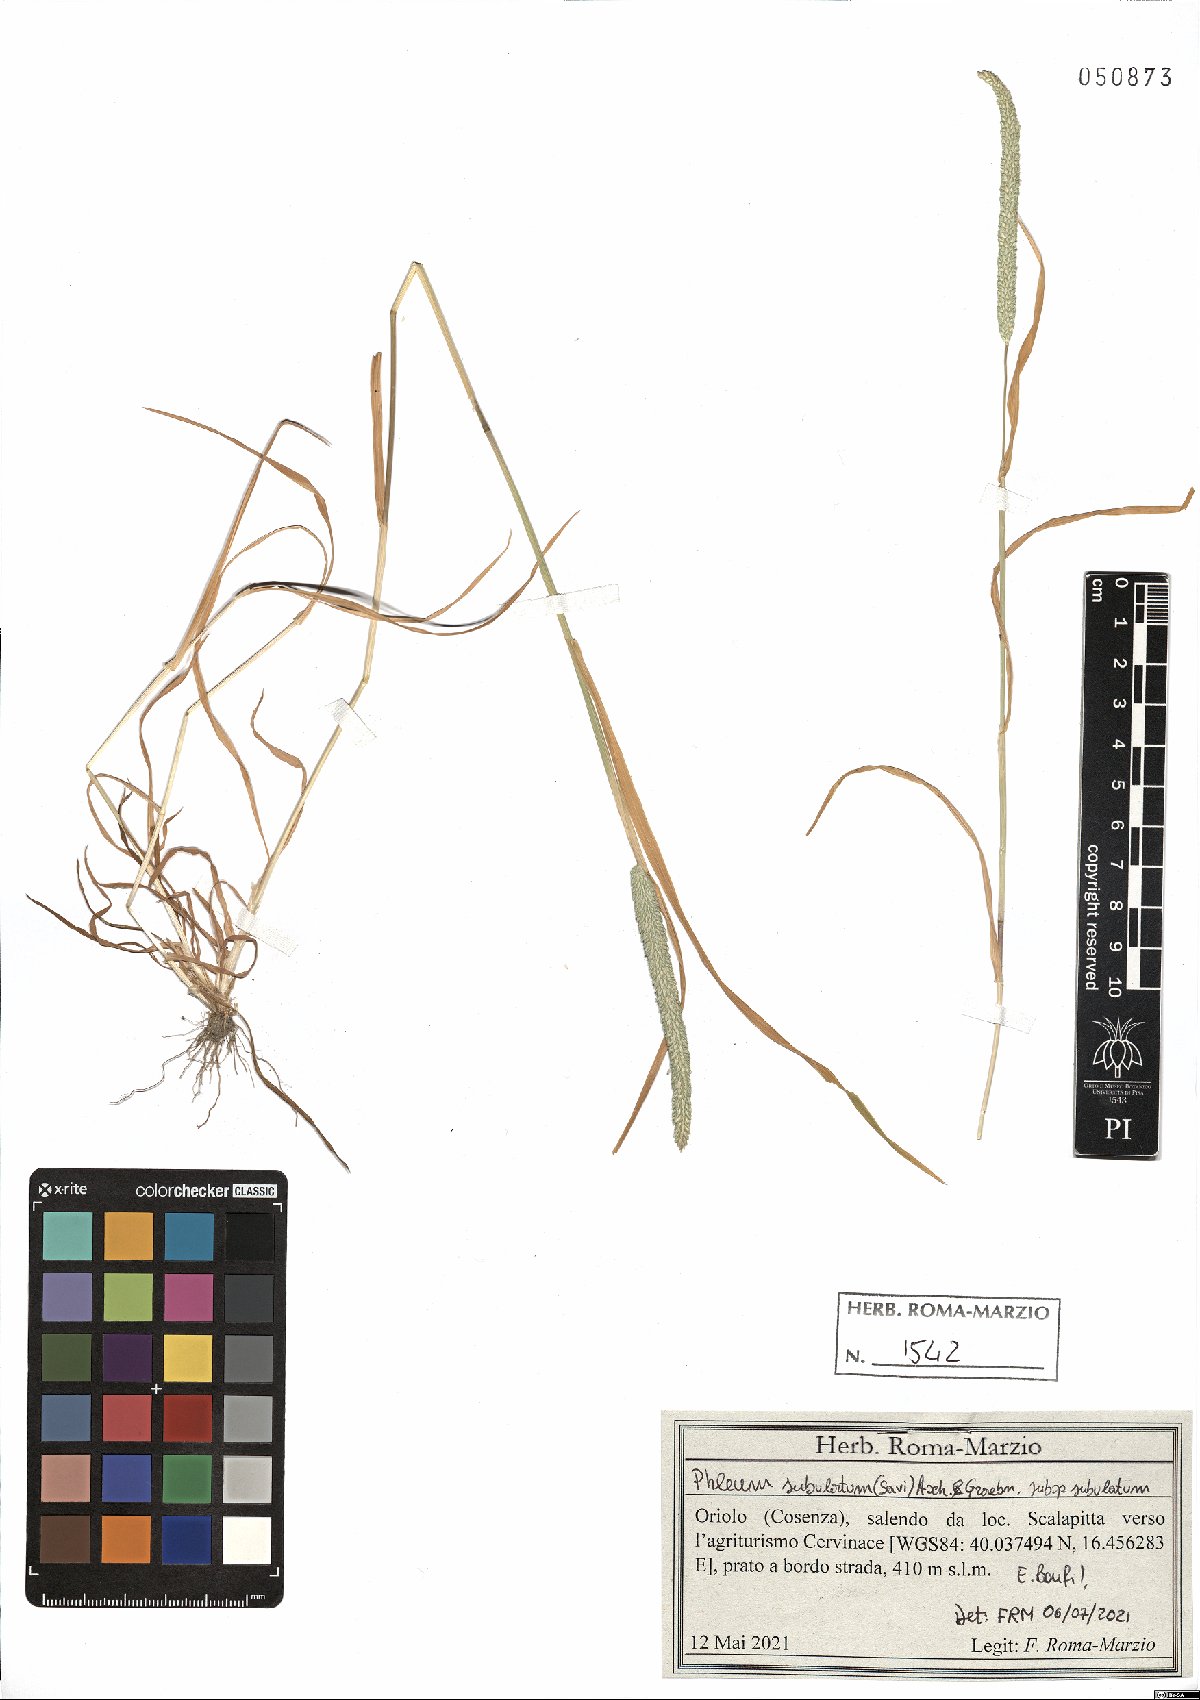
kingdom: Plantae
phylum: Tracheophyta
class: Liliopsida
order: Poales
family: Poaceae
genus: Phleum
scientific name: Phleum subulatum
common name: Italian timothy
